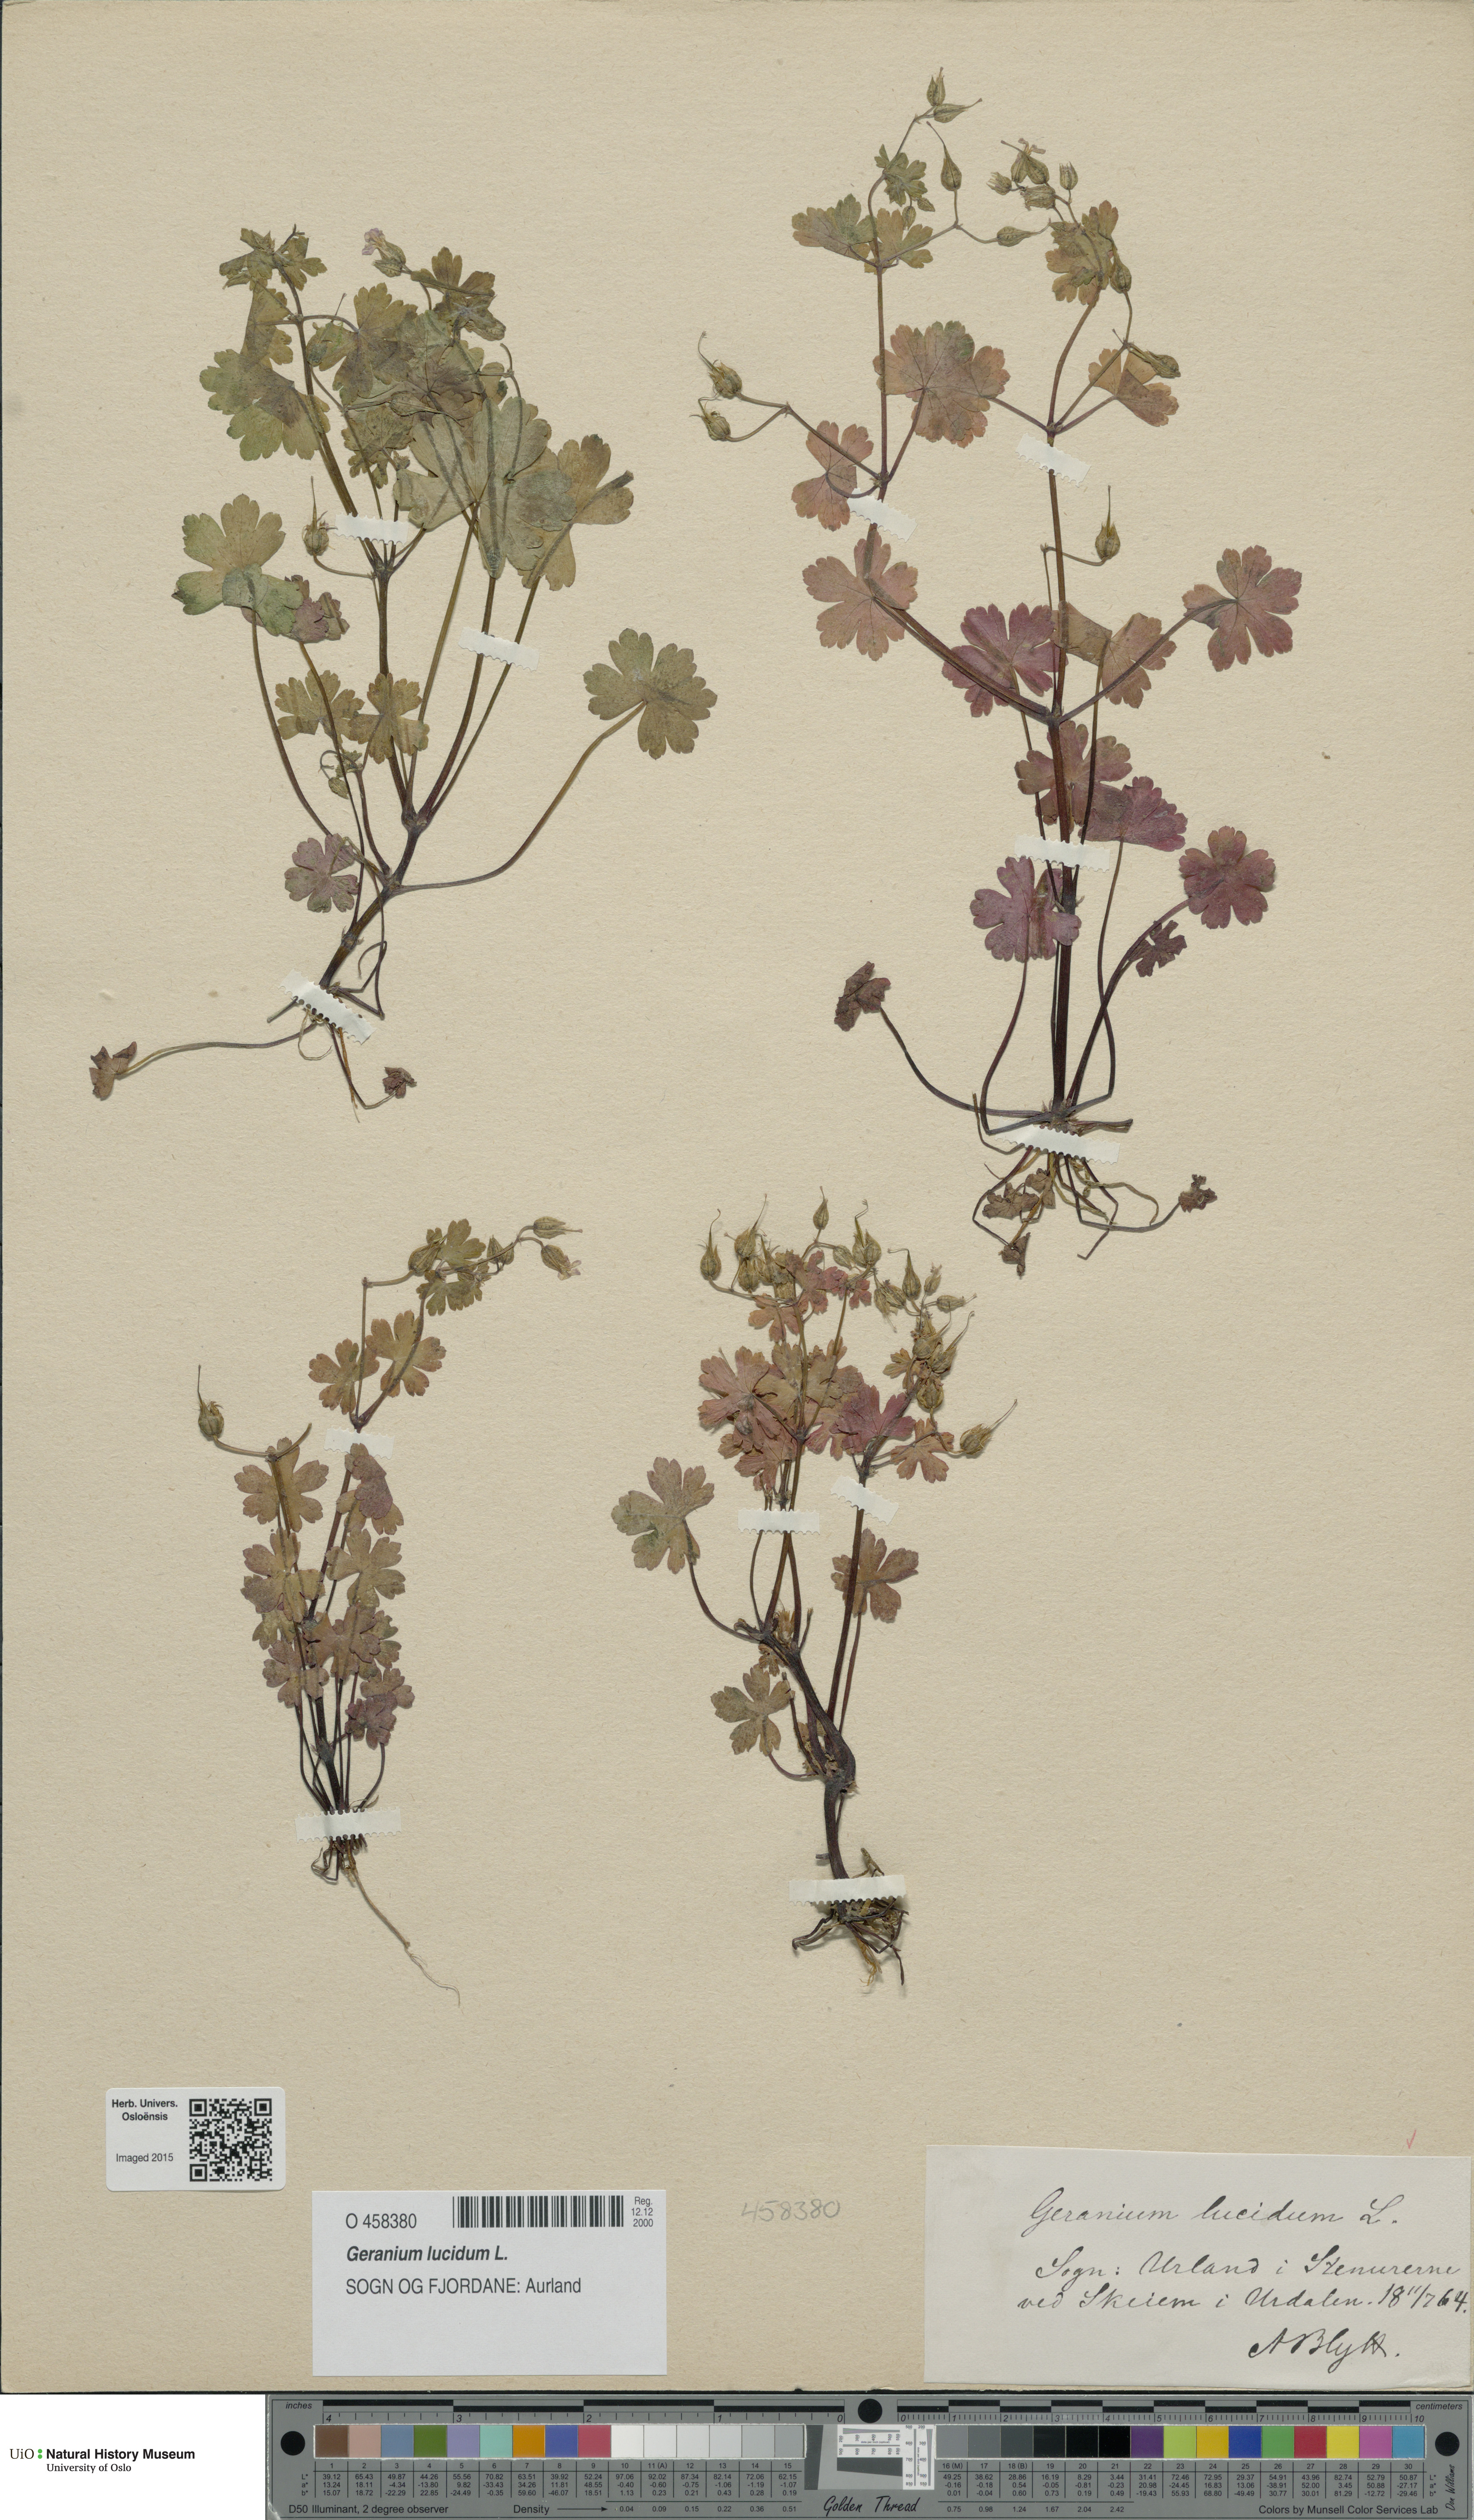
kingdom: Plantae
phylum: Tracheophyta
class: Magnoliopsida
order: Geraniales
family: Geraniaceae
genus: Geranium
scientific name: Geranium lucidum
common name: Shining crane's-bill
